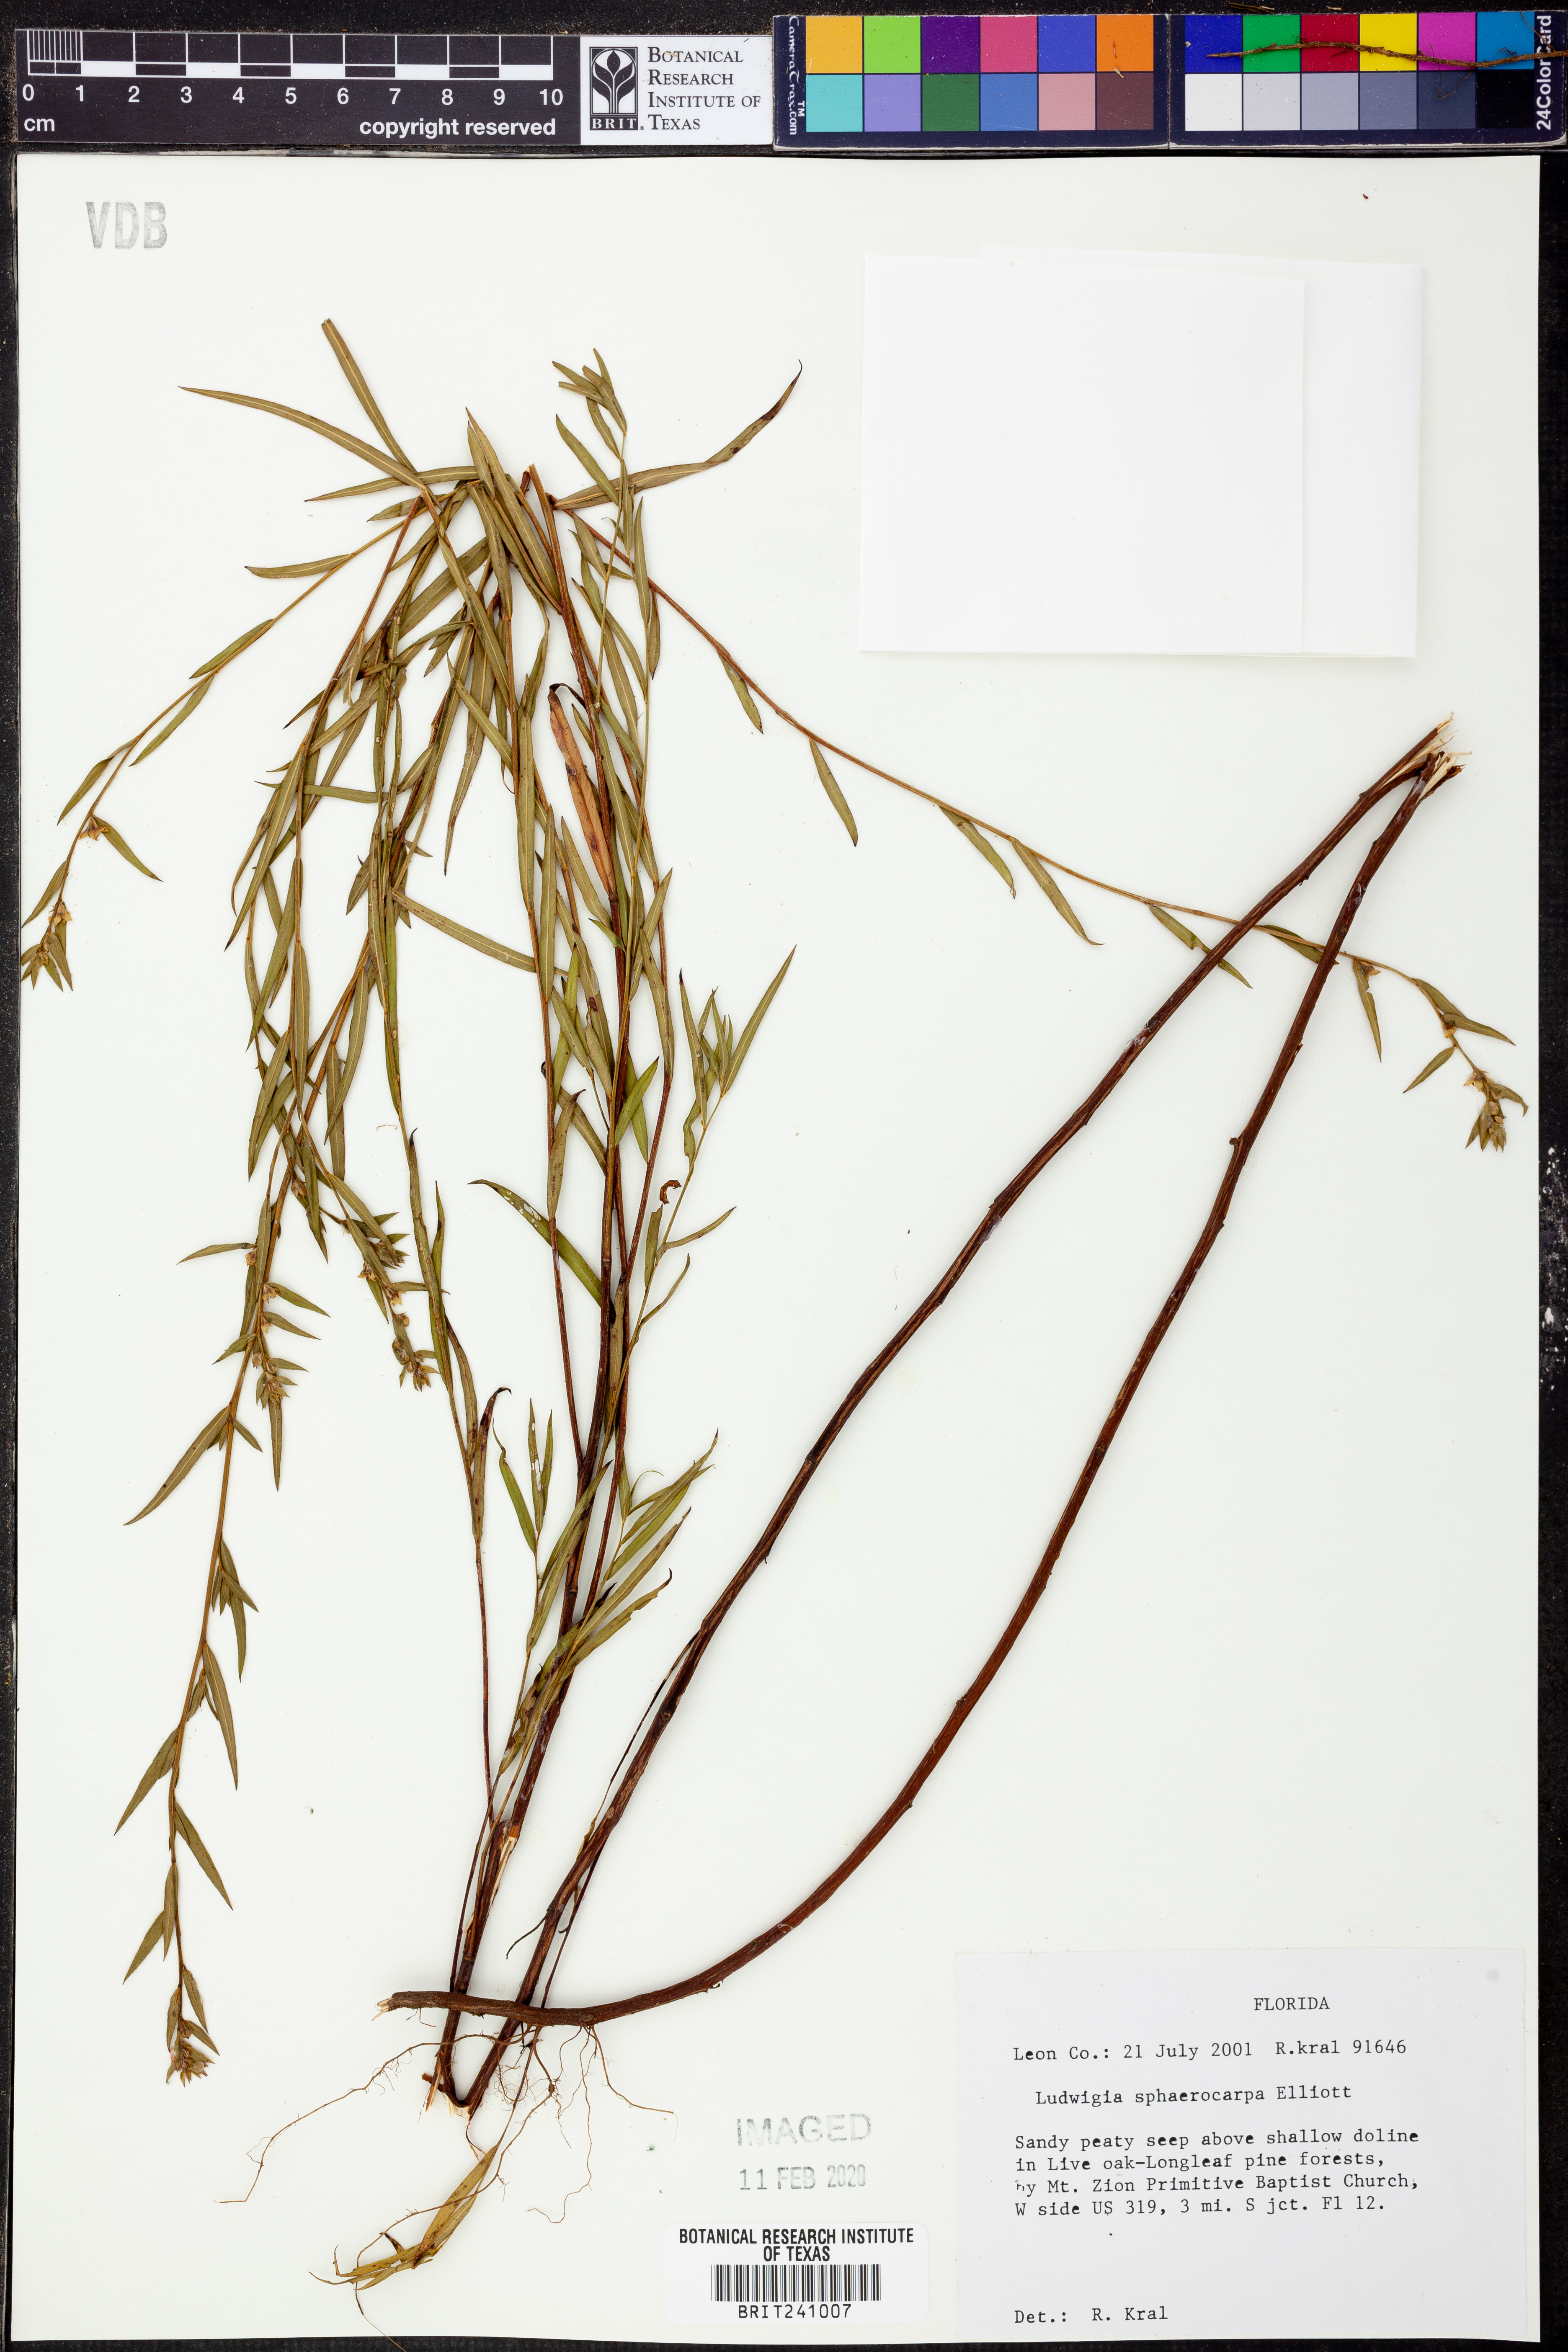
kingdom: Plantae
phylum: Tracheophyta
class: Magnoliopsida
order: Myrtales
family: Onagraceae
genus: Ludwigia
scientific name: Ludwigia sphaerocarpa
